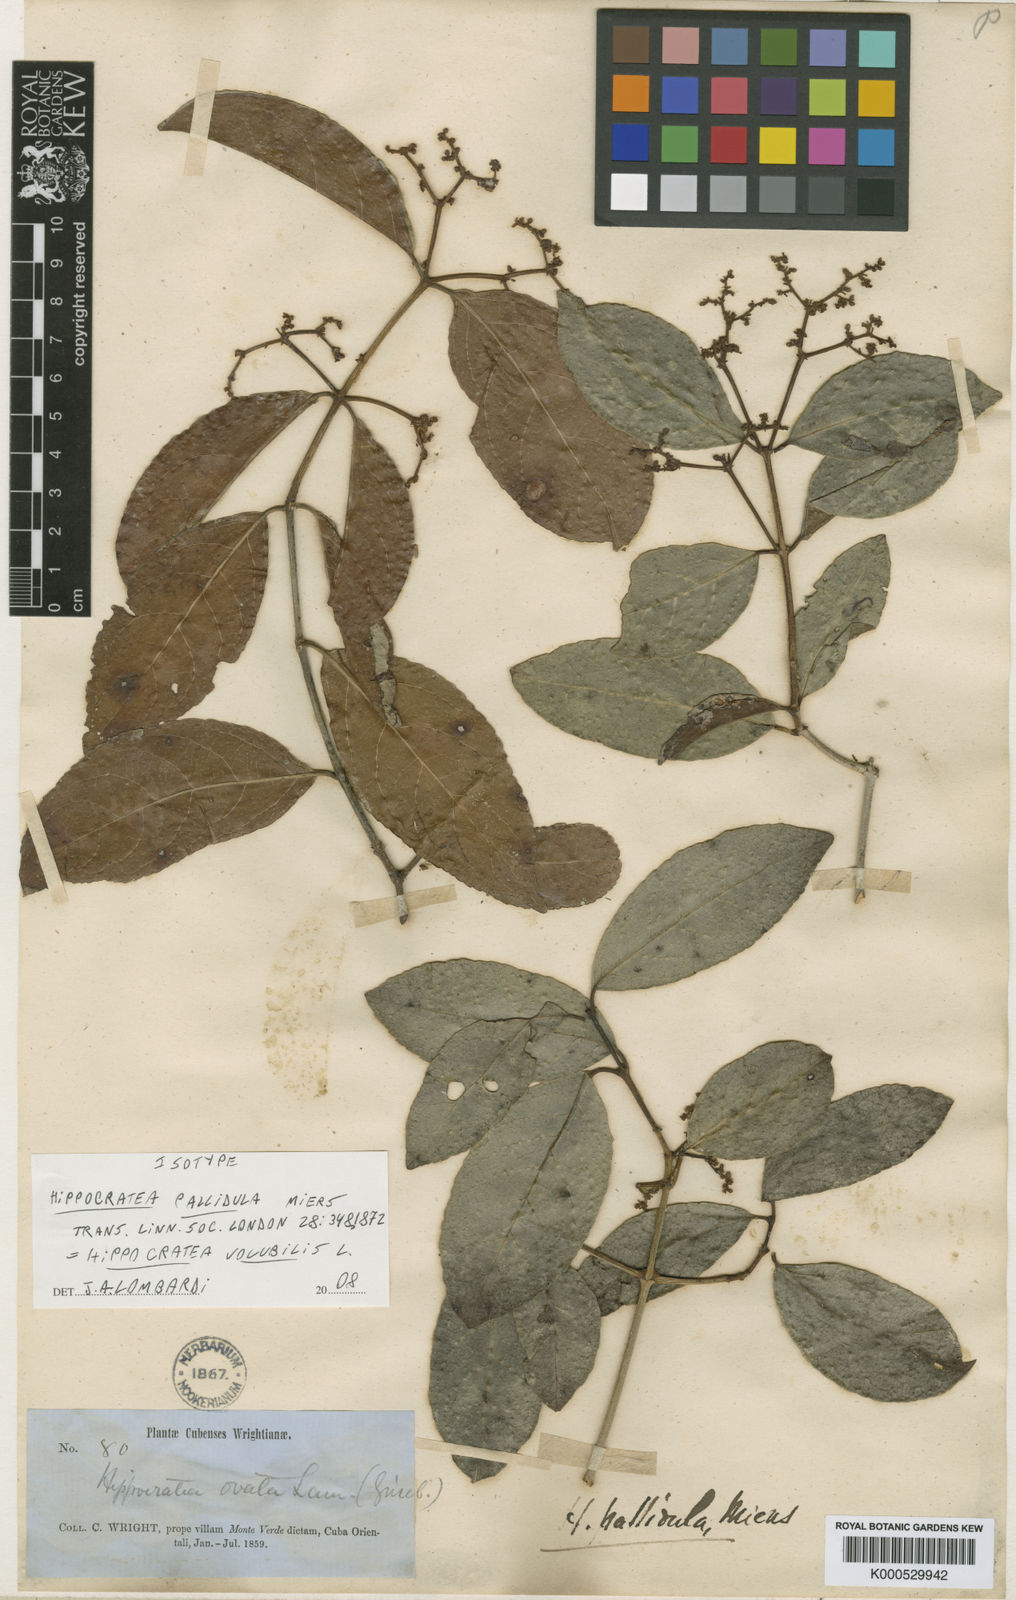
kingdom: Plantae
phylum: Tracheophyta
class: Magnoliopsida
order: Celastrales
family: Celastraceae
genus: Hippocratea
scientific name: Hippocratea volubilis
